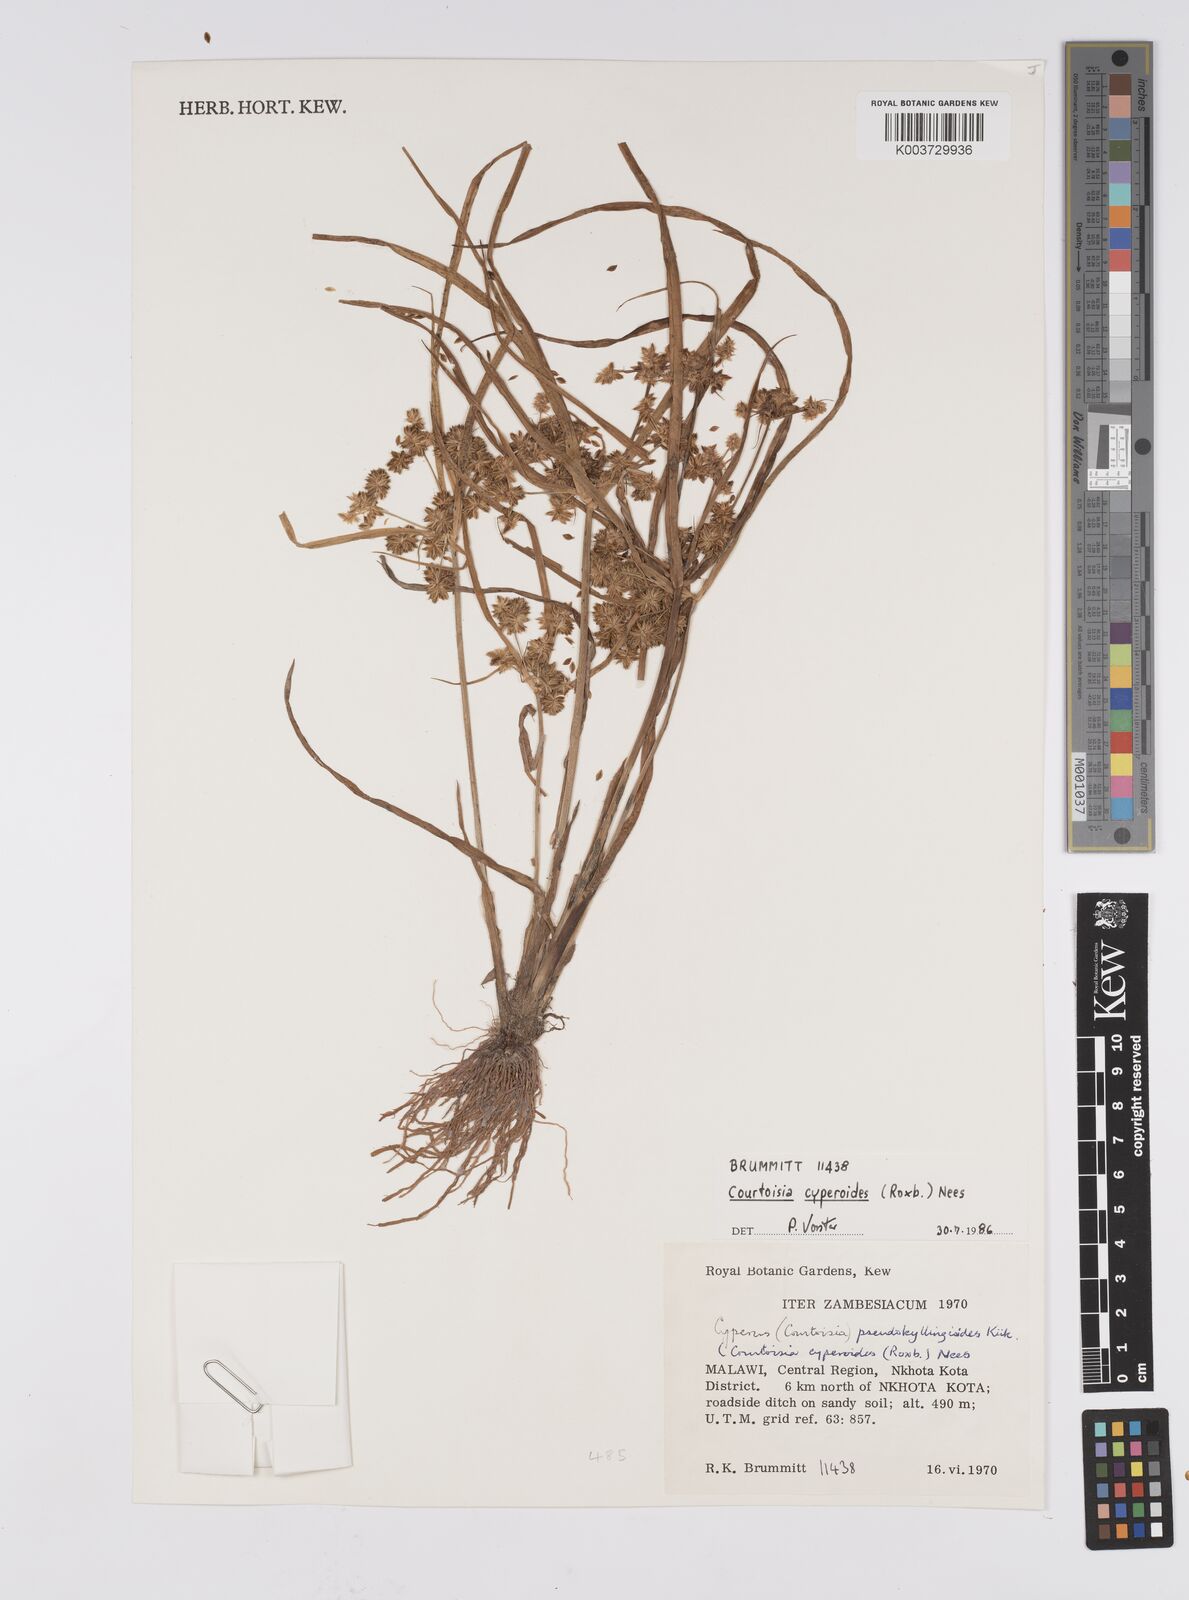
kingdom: Plantae
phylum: Tracheophyta
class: Liliopsida
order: Poales
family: Cyperaceae
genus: Cyperus
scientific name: Cyperus cyperoides
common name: Pacific island flat sedge
